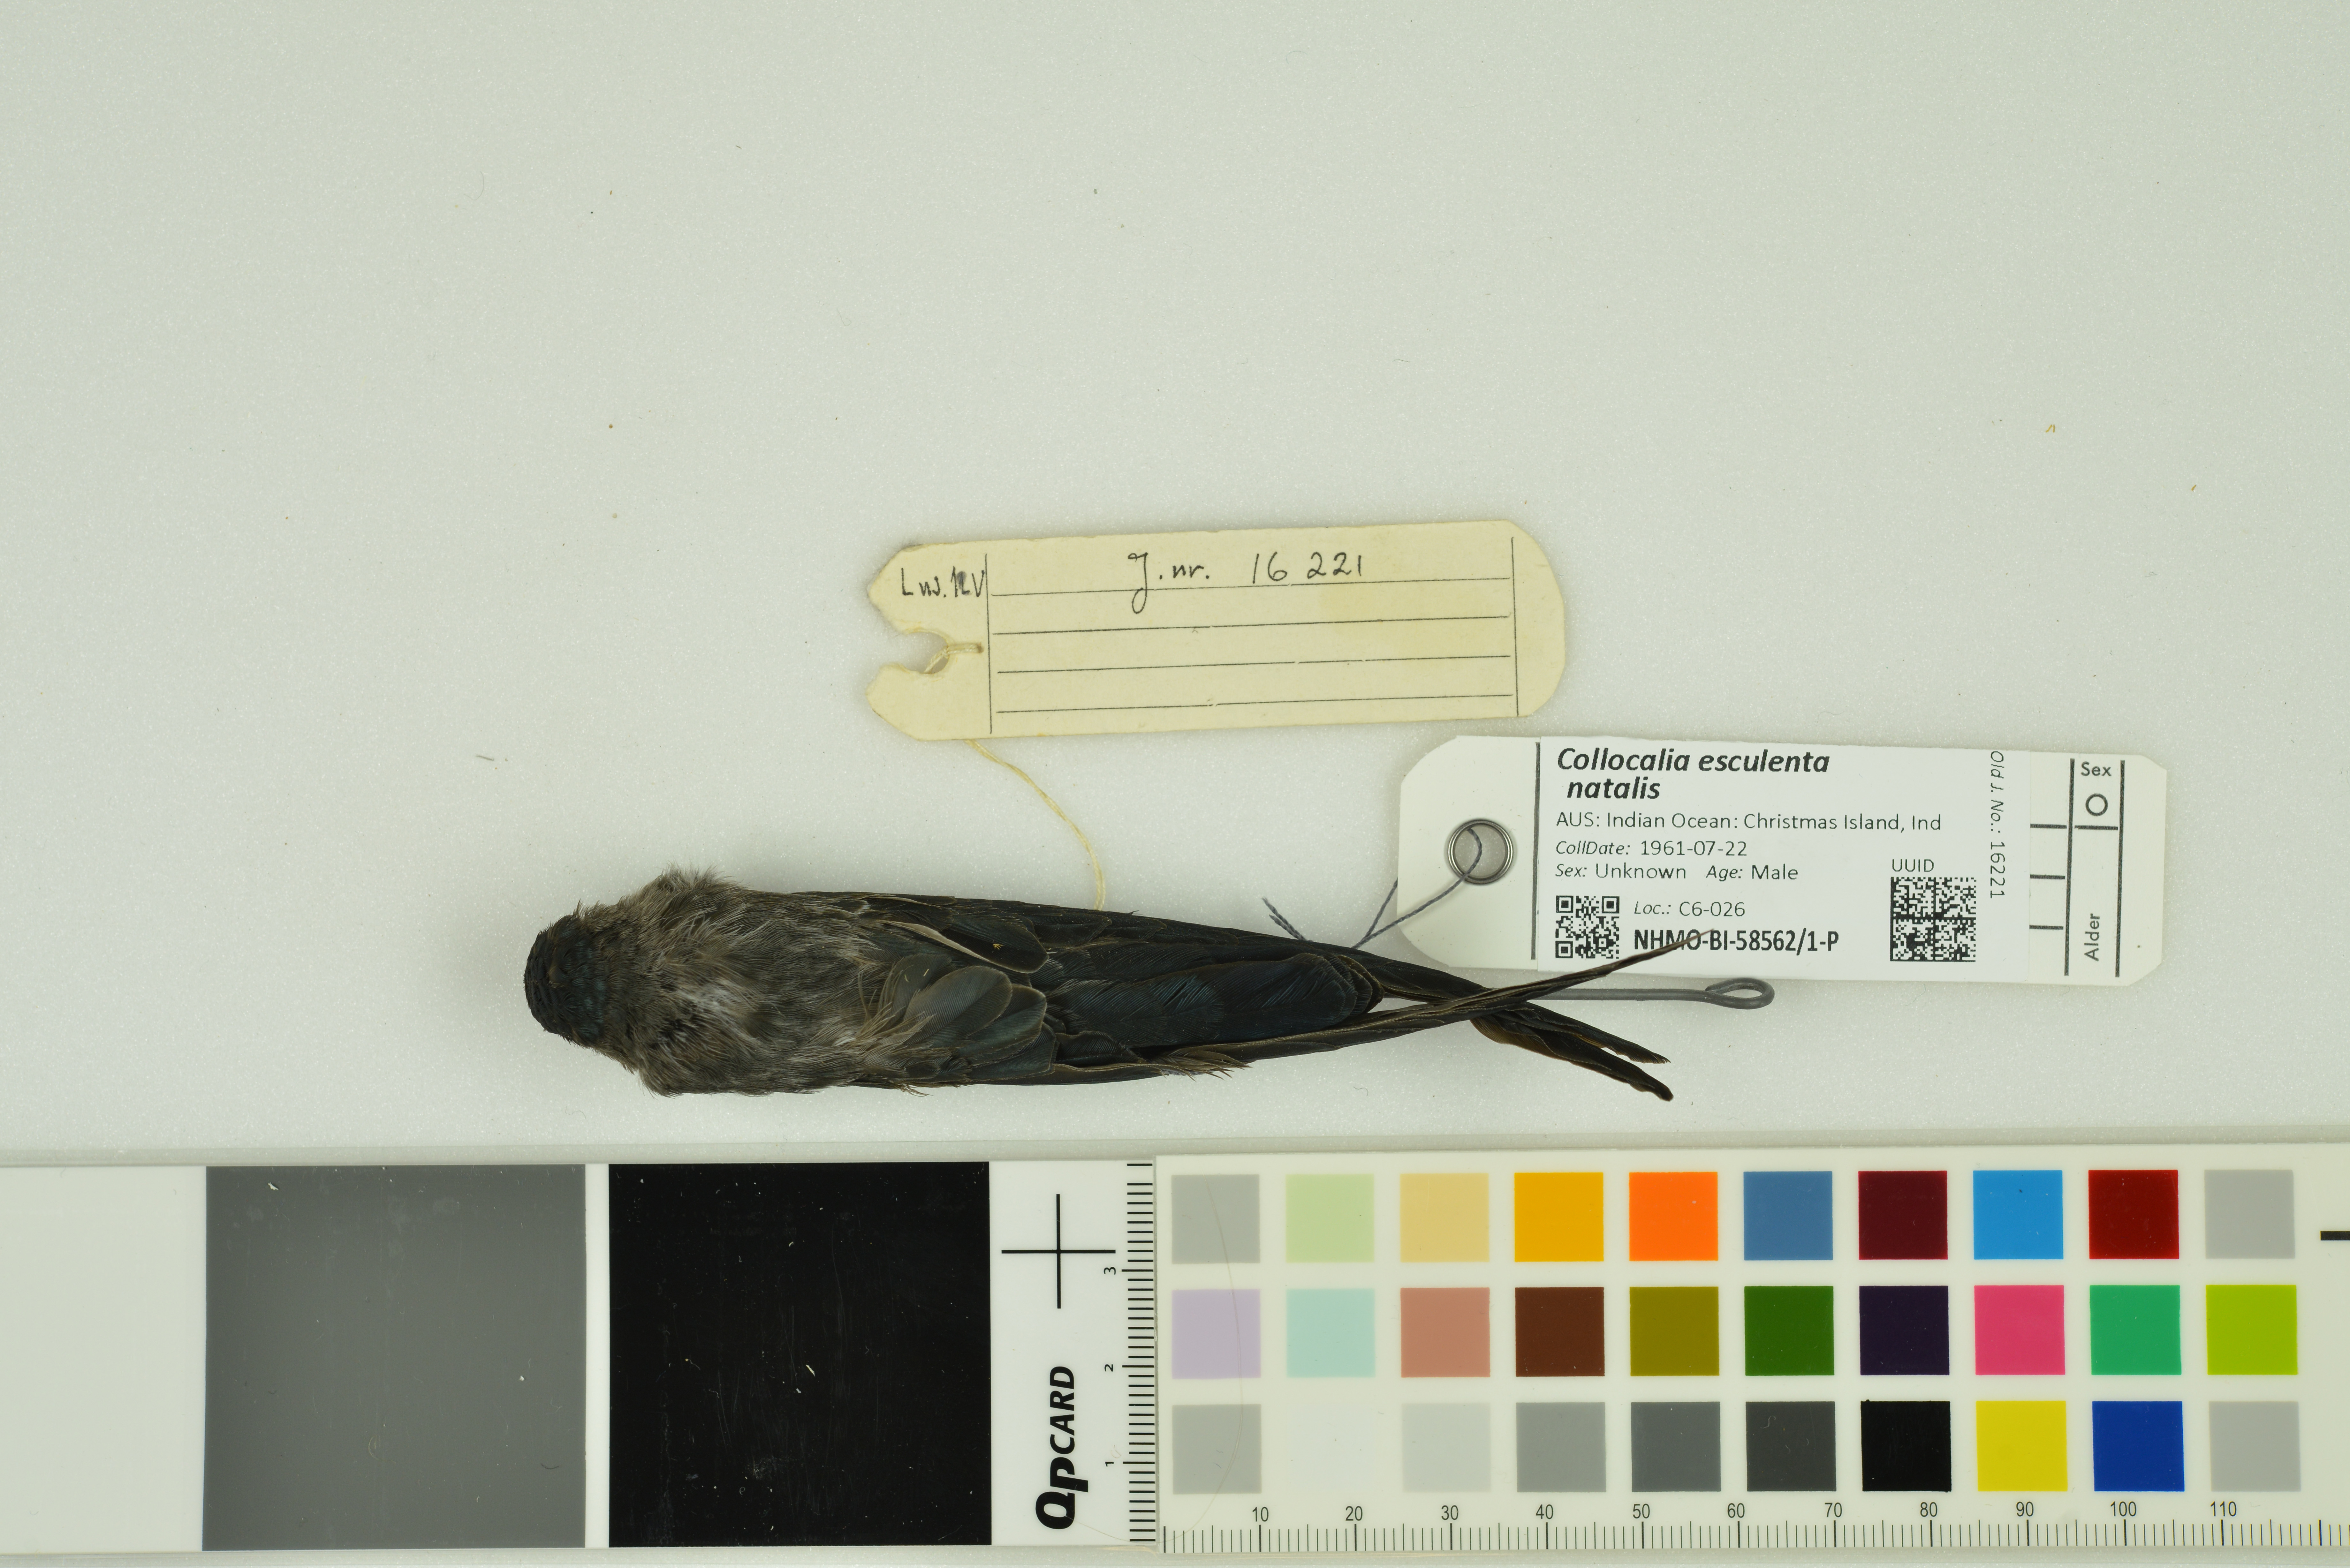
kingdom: Animalia
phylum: Chordata
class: Aves
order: Apodiformes
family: Apodidae
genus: Collocalia
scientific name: Collocalia natalis
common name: Christmas island swiftlet
